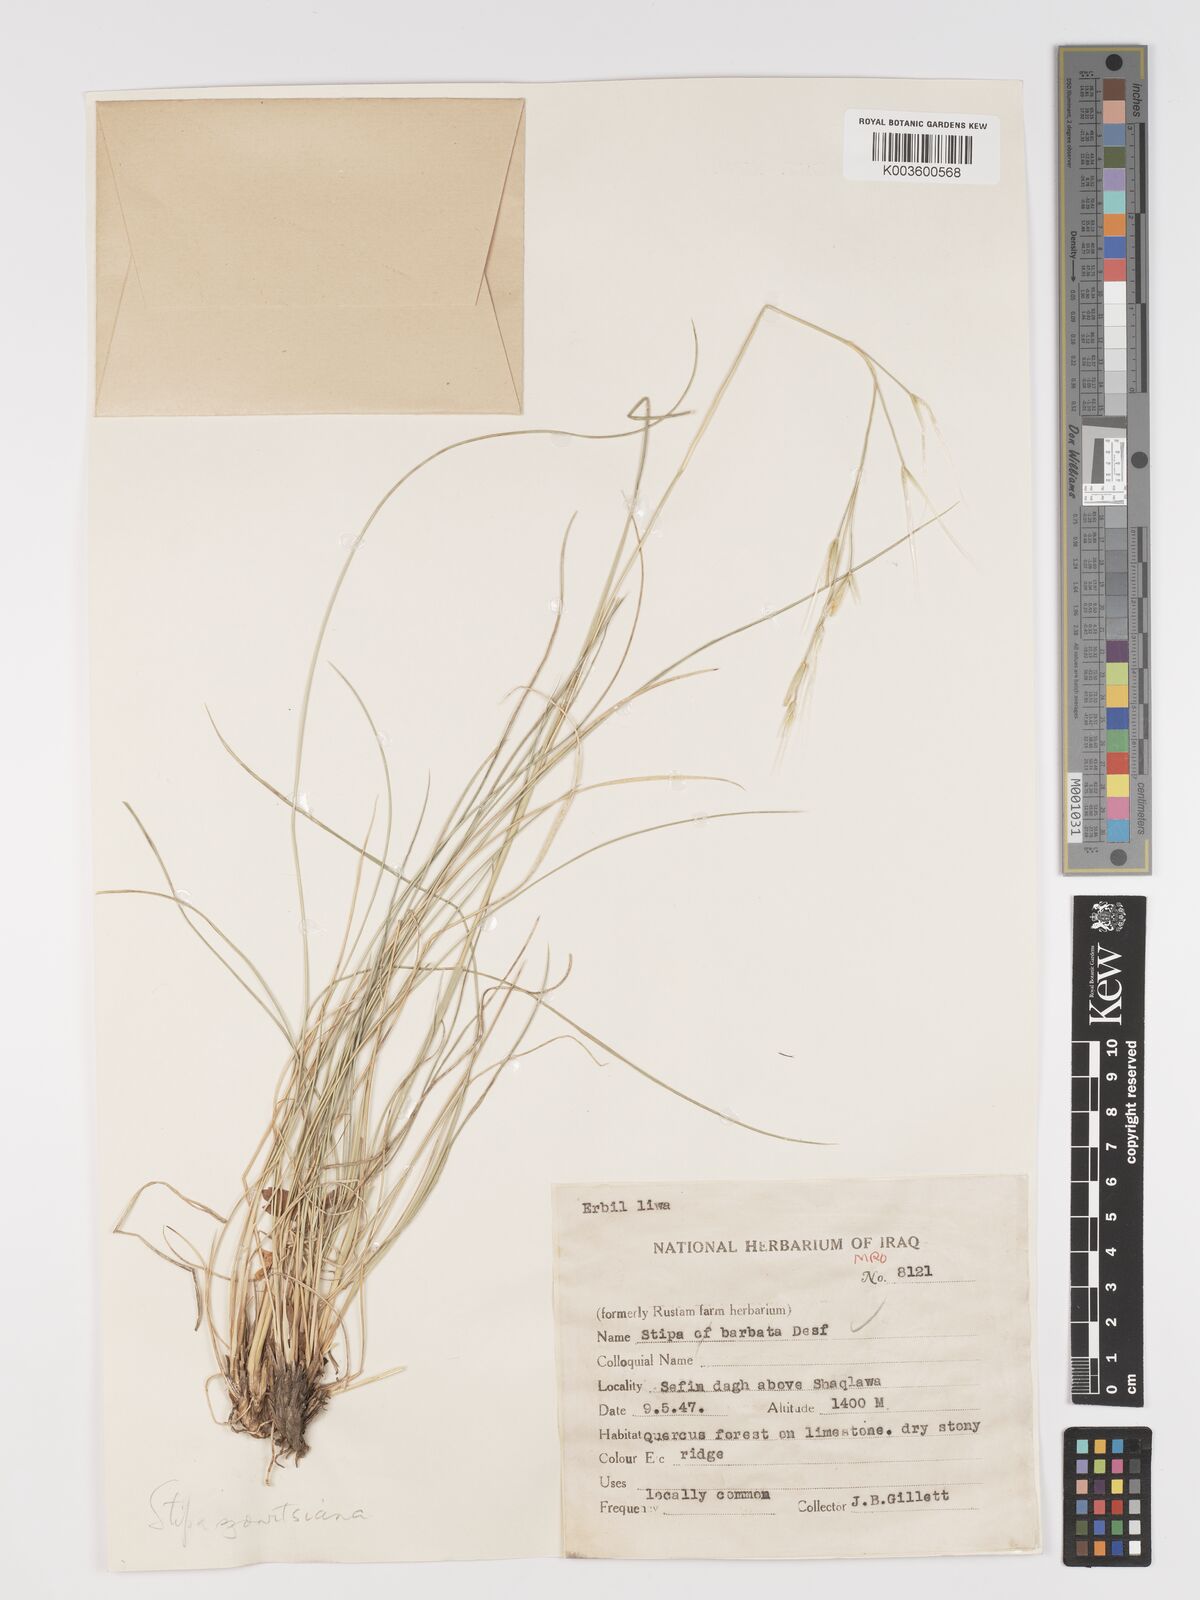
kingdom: Plantae
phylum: Tracheophyta
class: Liliopsida
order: Poales
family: Poaceae
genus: Stipa
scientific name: Stipa barbata
